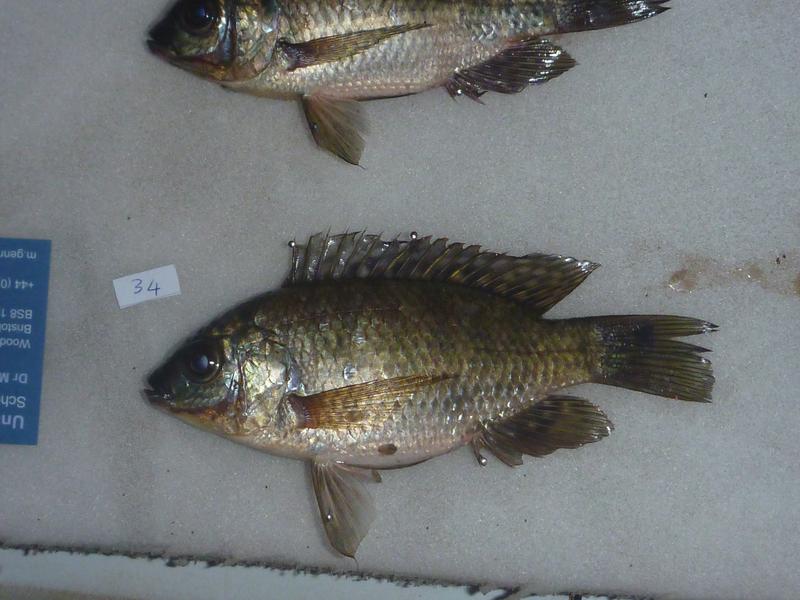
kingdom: Animalia
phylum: Chordata
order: Perciformes
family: Cichlidae
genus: Oreochromis
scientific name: Oreochromis leucostictus
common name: Blue spotted tilapia
